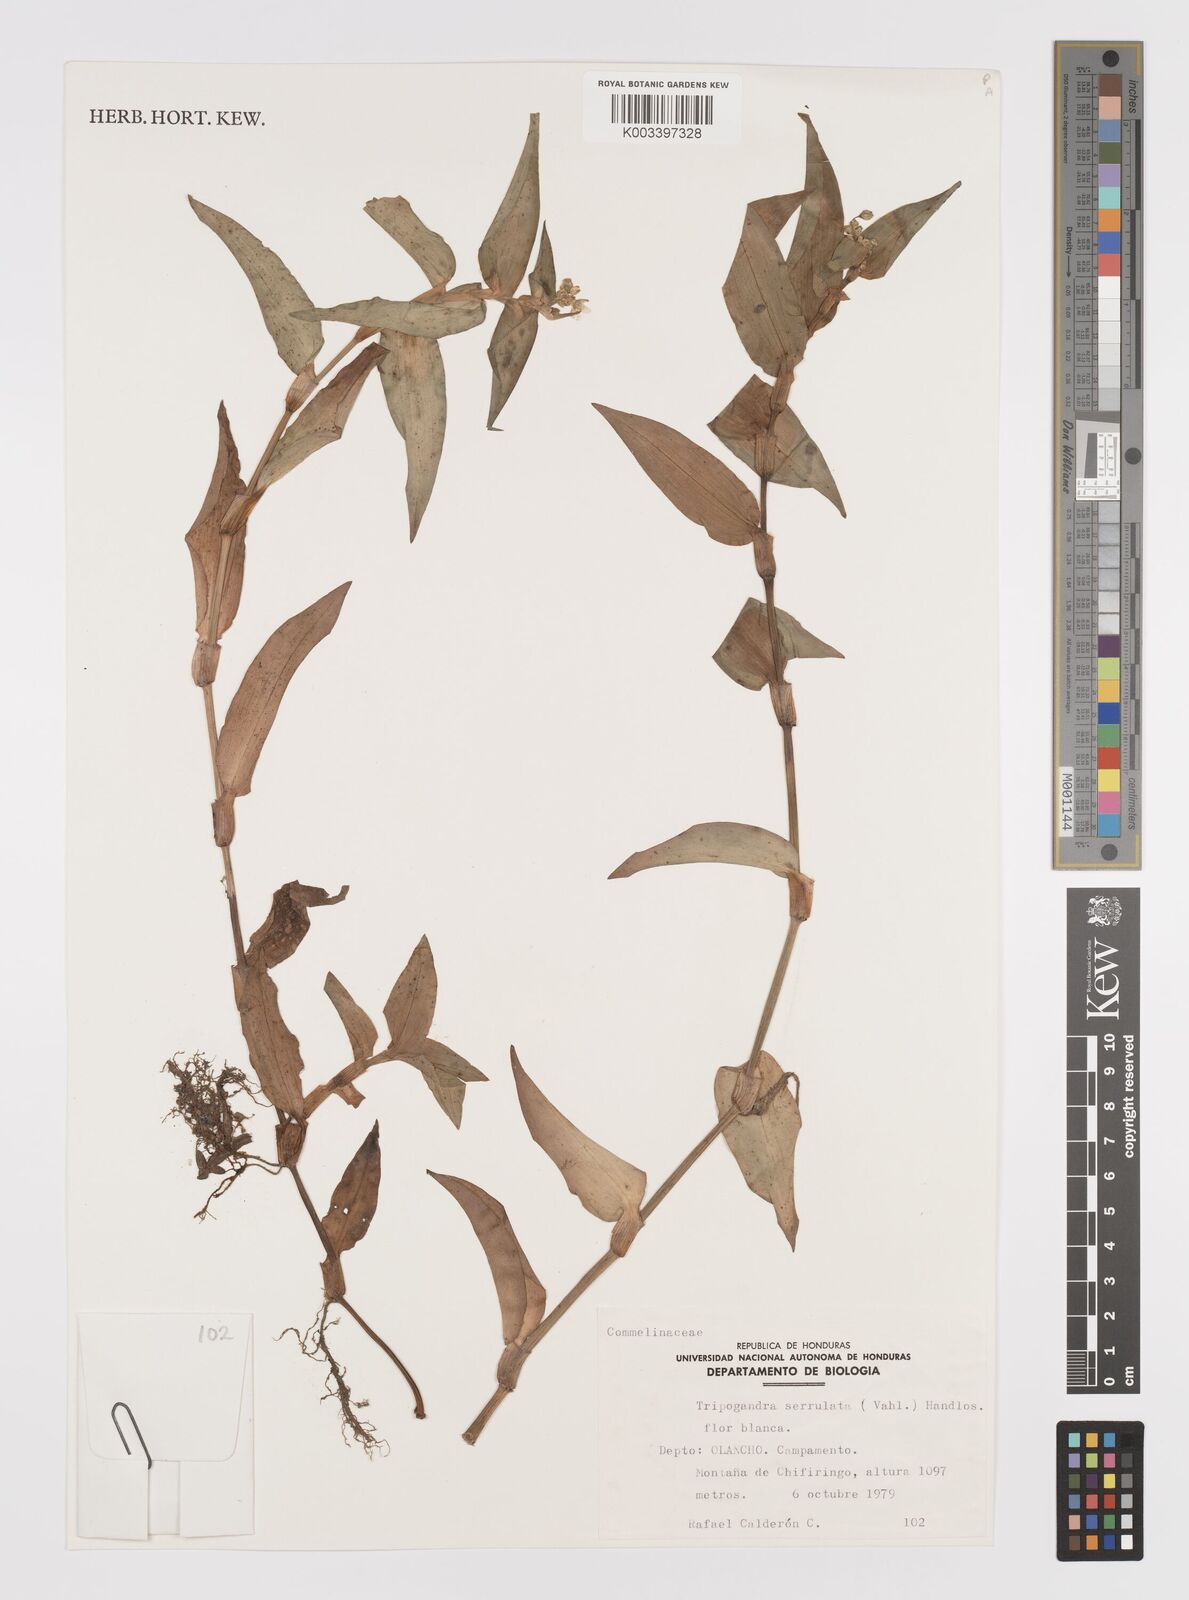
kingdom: Plantae
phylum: Tracheophyta
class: Liliopsida
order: Commelinales
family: Commelinaceae
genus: Callisia
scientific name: Callisia serrulata
